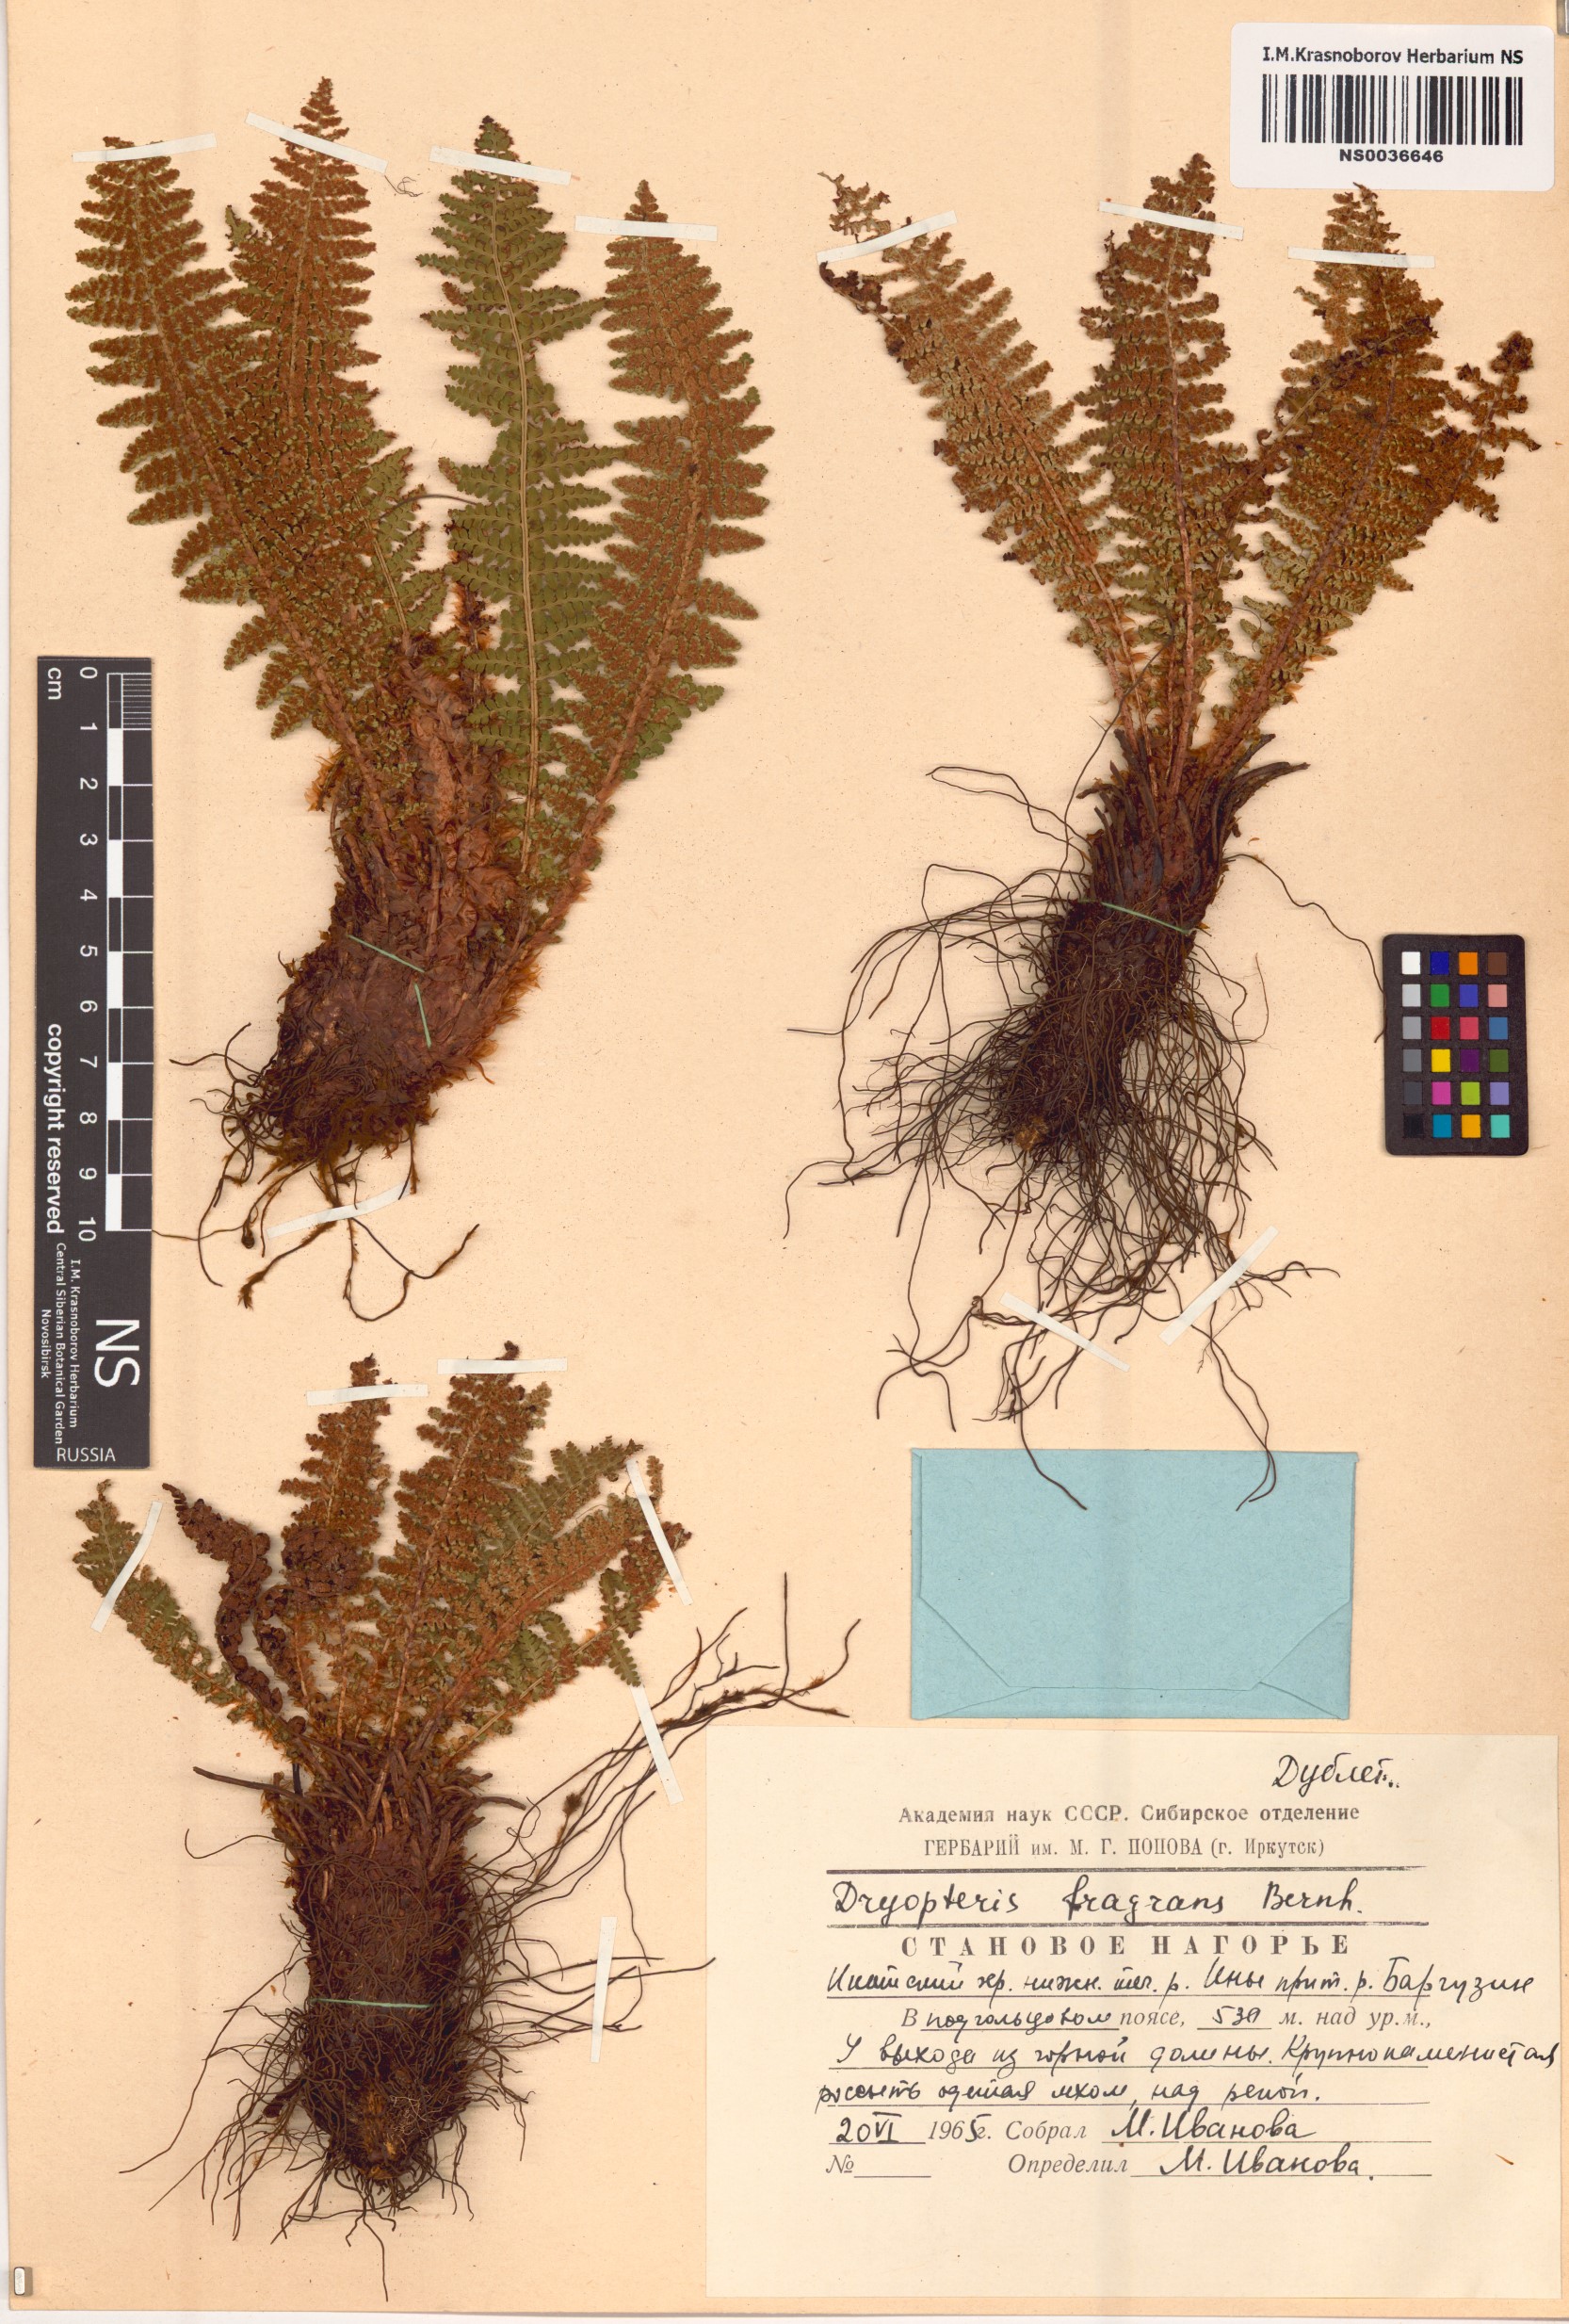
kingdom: Plantae
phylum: Tracheophyta
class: Polypodiopsida
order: Polypodiales
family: Dryopteridaceae
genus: Dryopteris
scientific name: Dryopteris fragrans
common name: Fragrant wood fern
